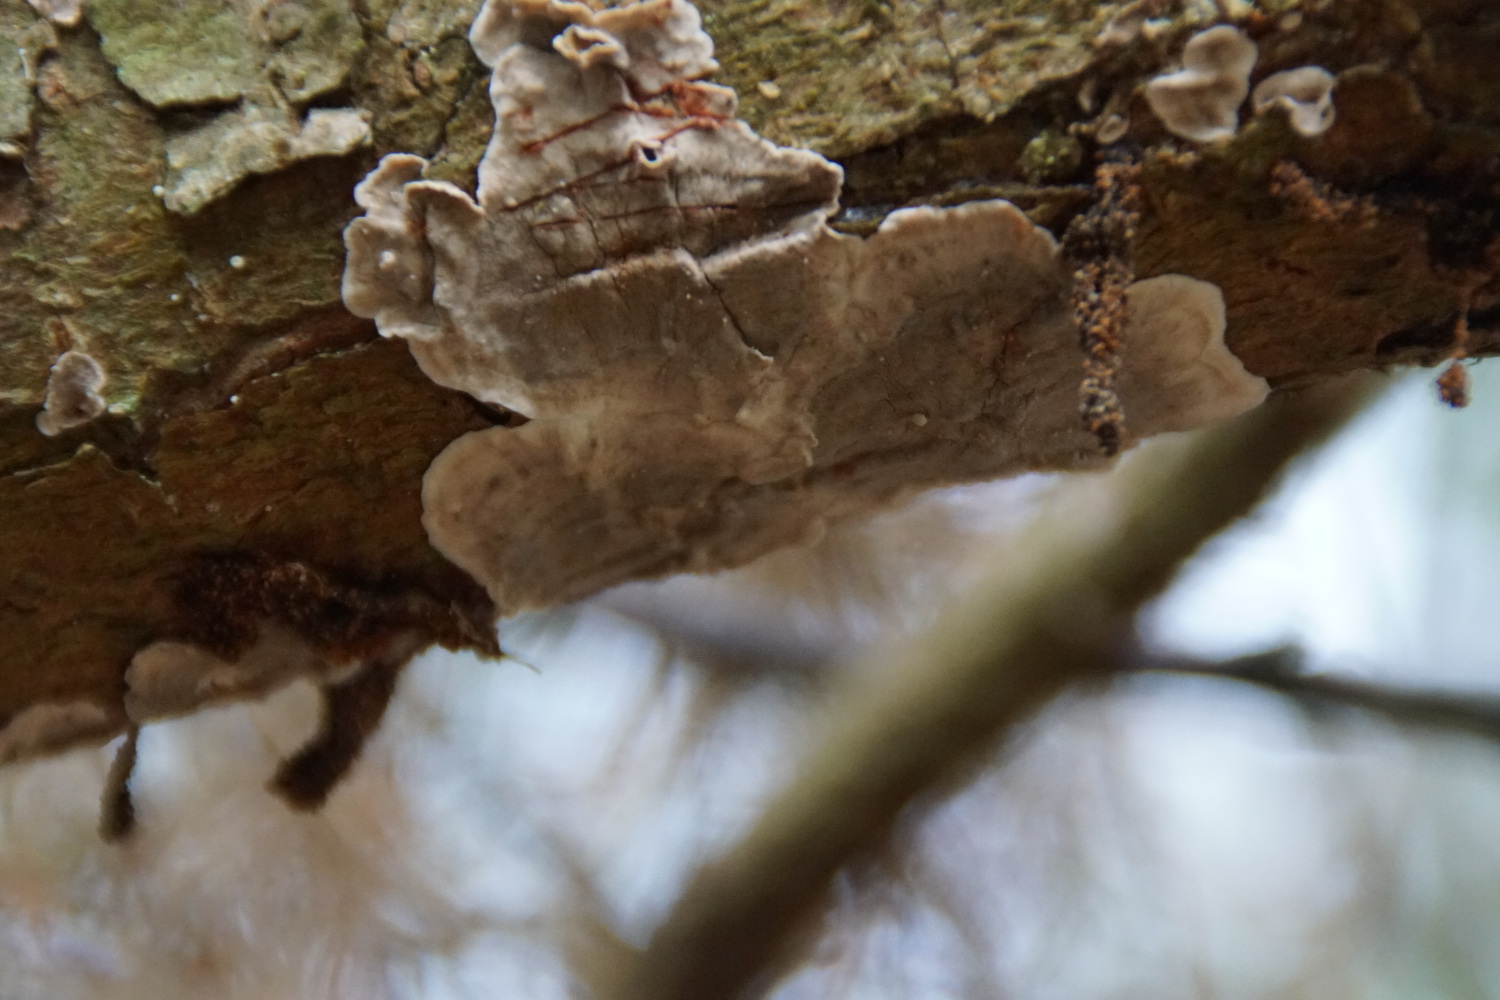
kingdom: Fungi
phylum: Basidiomycota
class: Agaricomycetes
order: Russulales
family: Stereaceae
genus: Stereum
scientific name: Stereum sanguinolentum
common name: blødende lædersvamp
